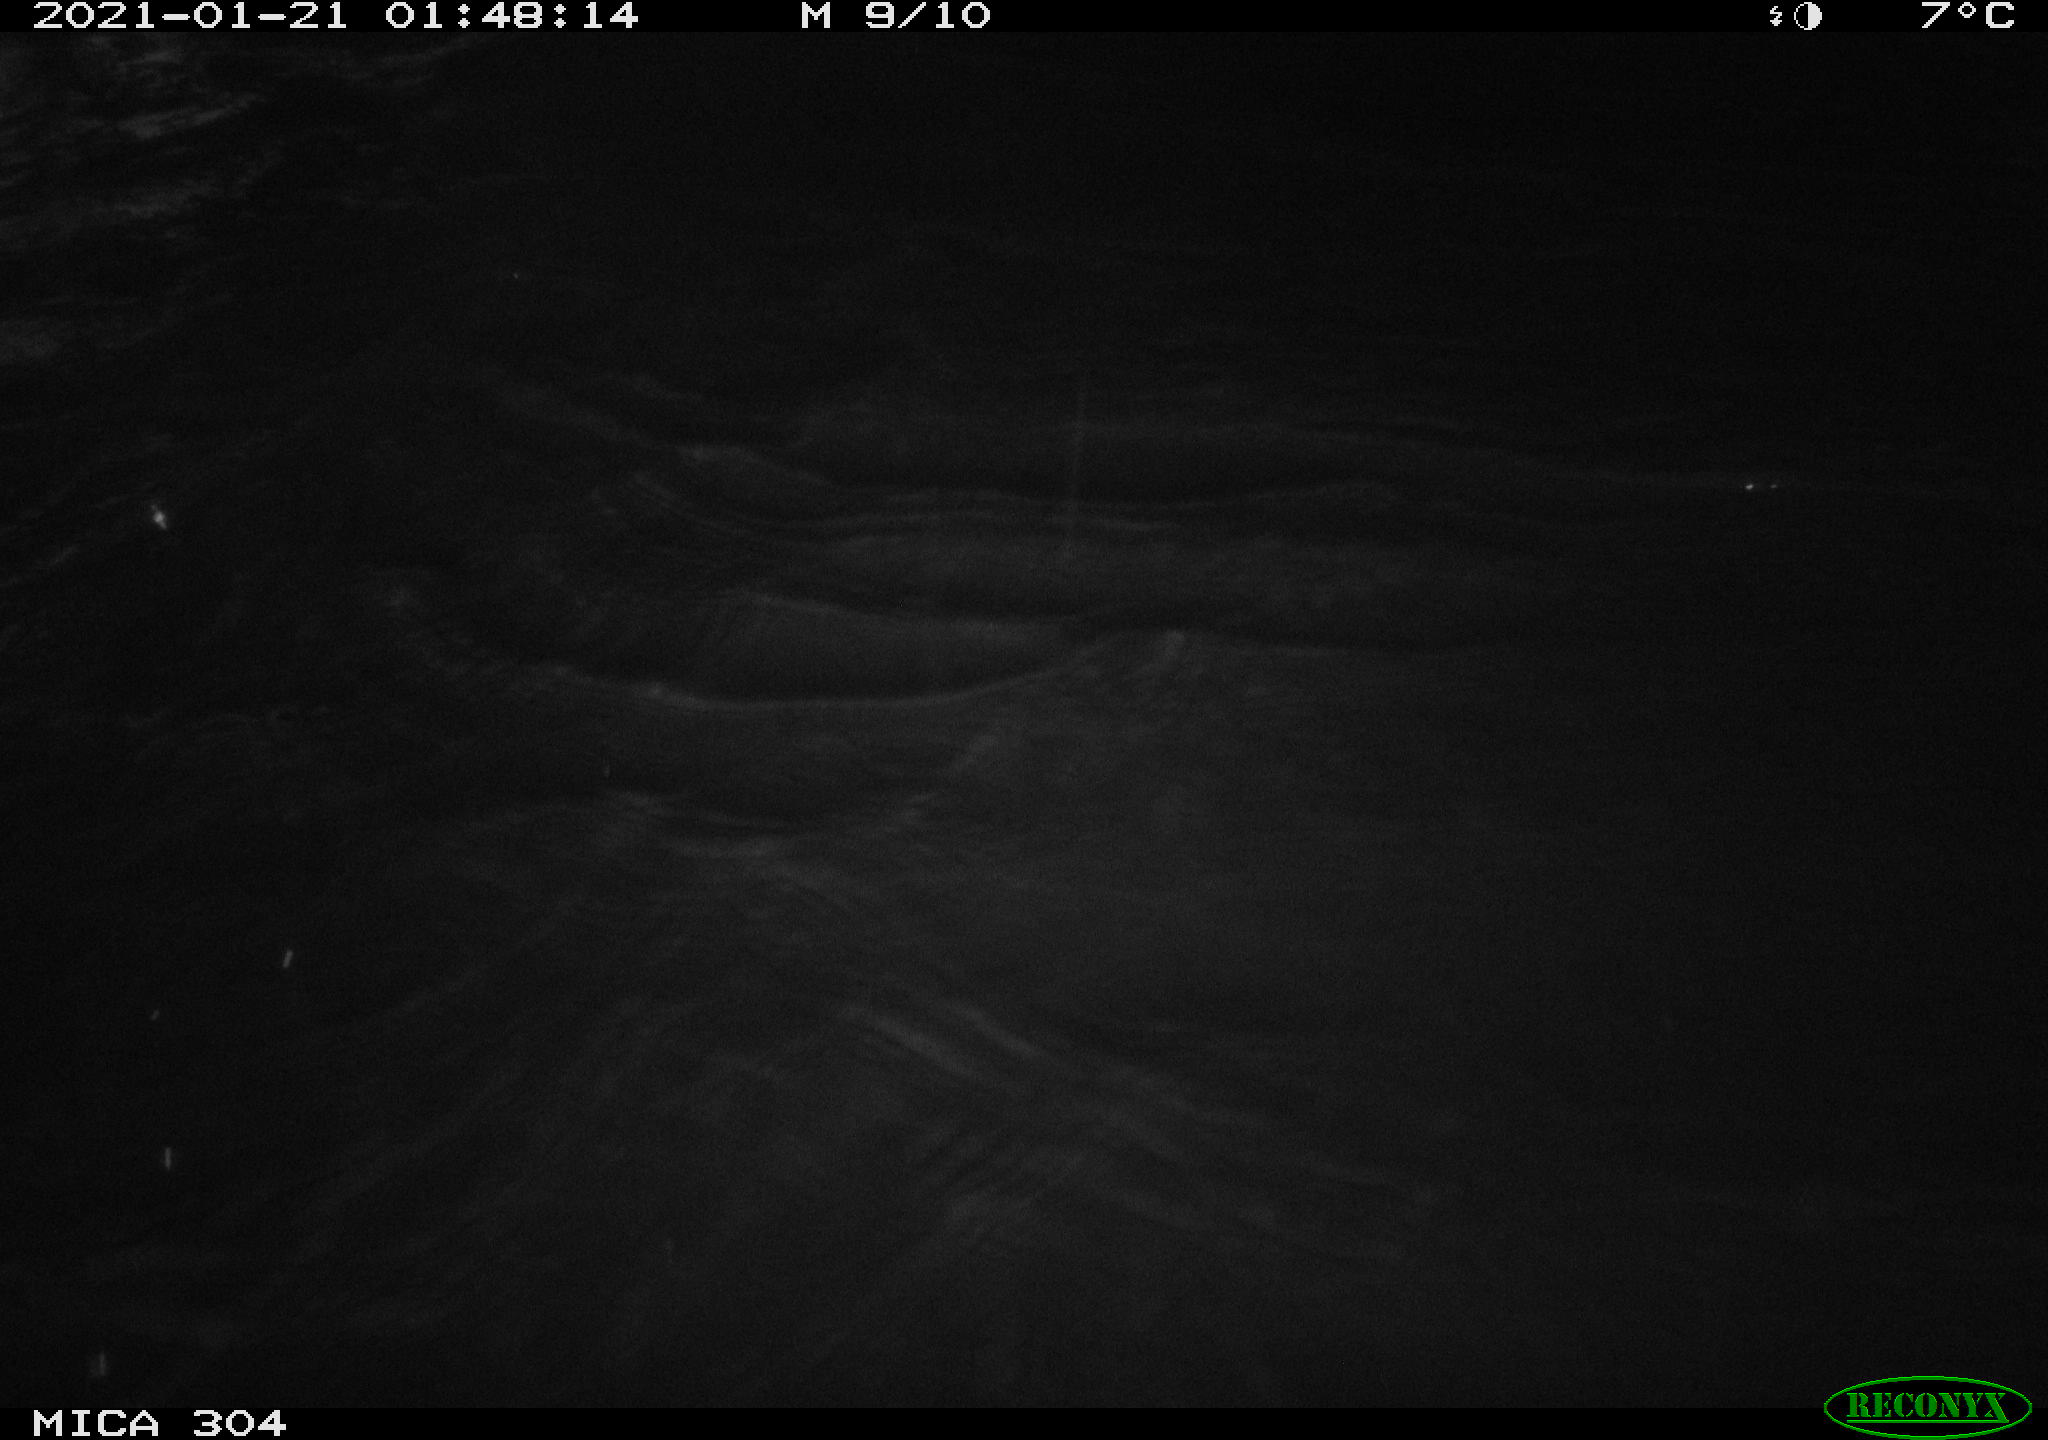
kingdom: Animalia
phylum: Chordata
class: Mammalia
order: Rodentia
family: Muridae
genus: Rattus
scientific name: Rattus norvegicus
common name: Brown rat
